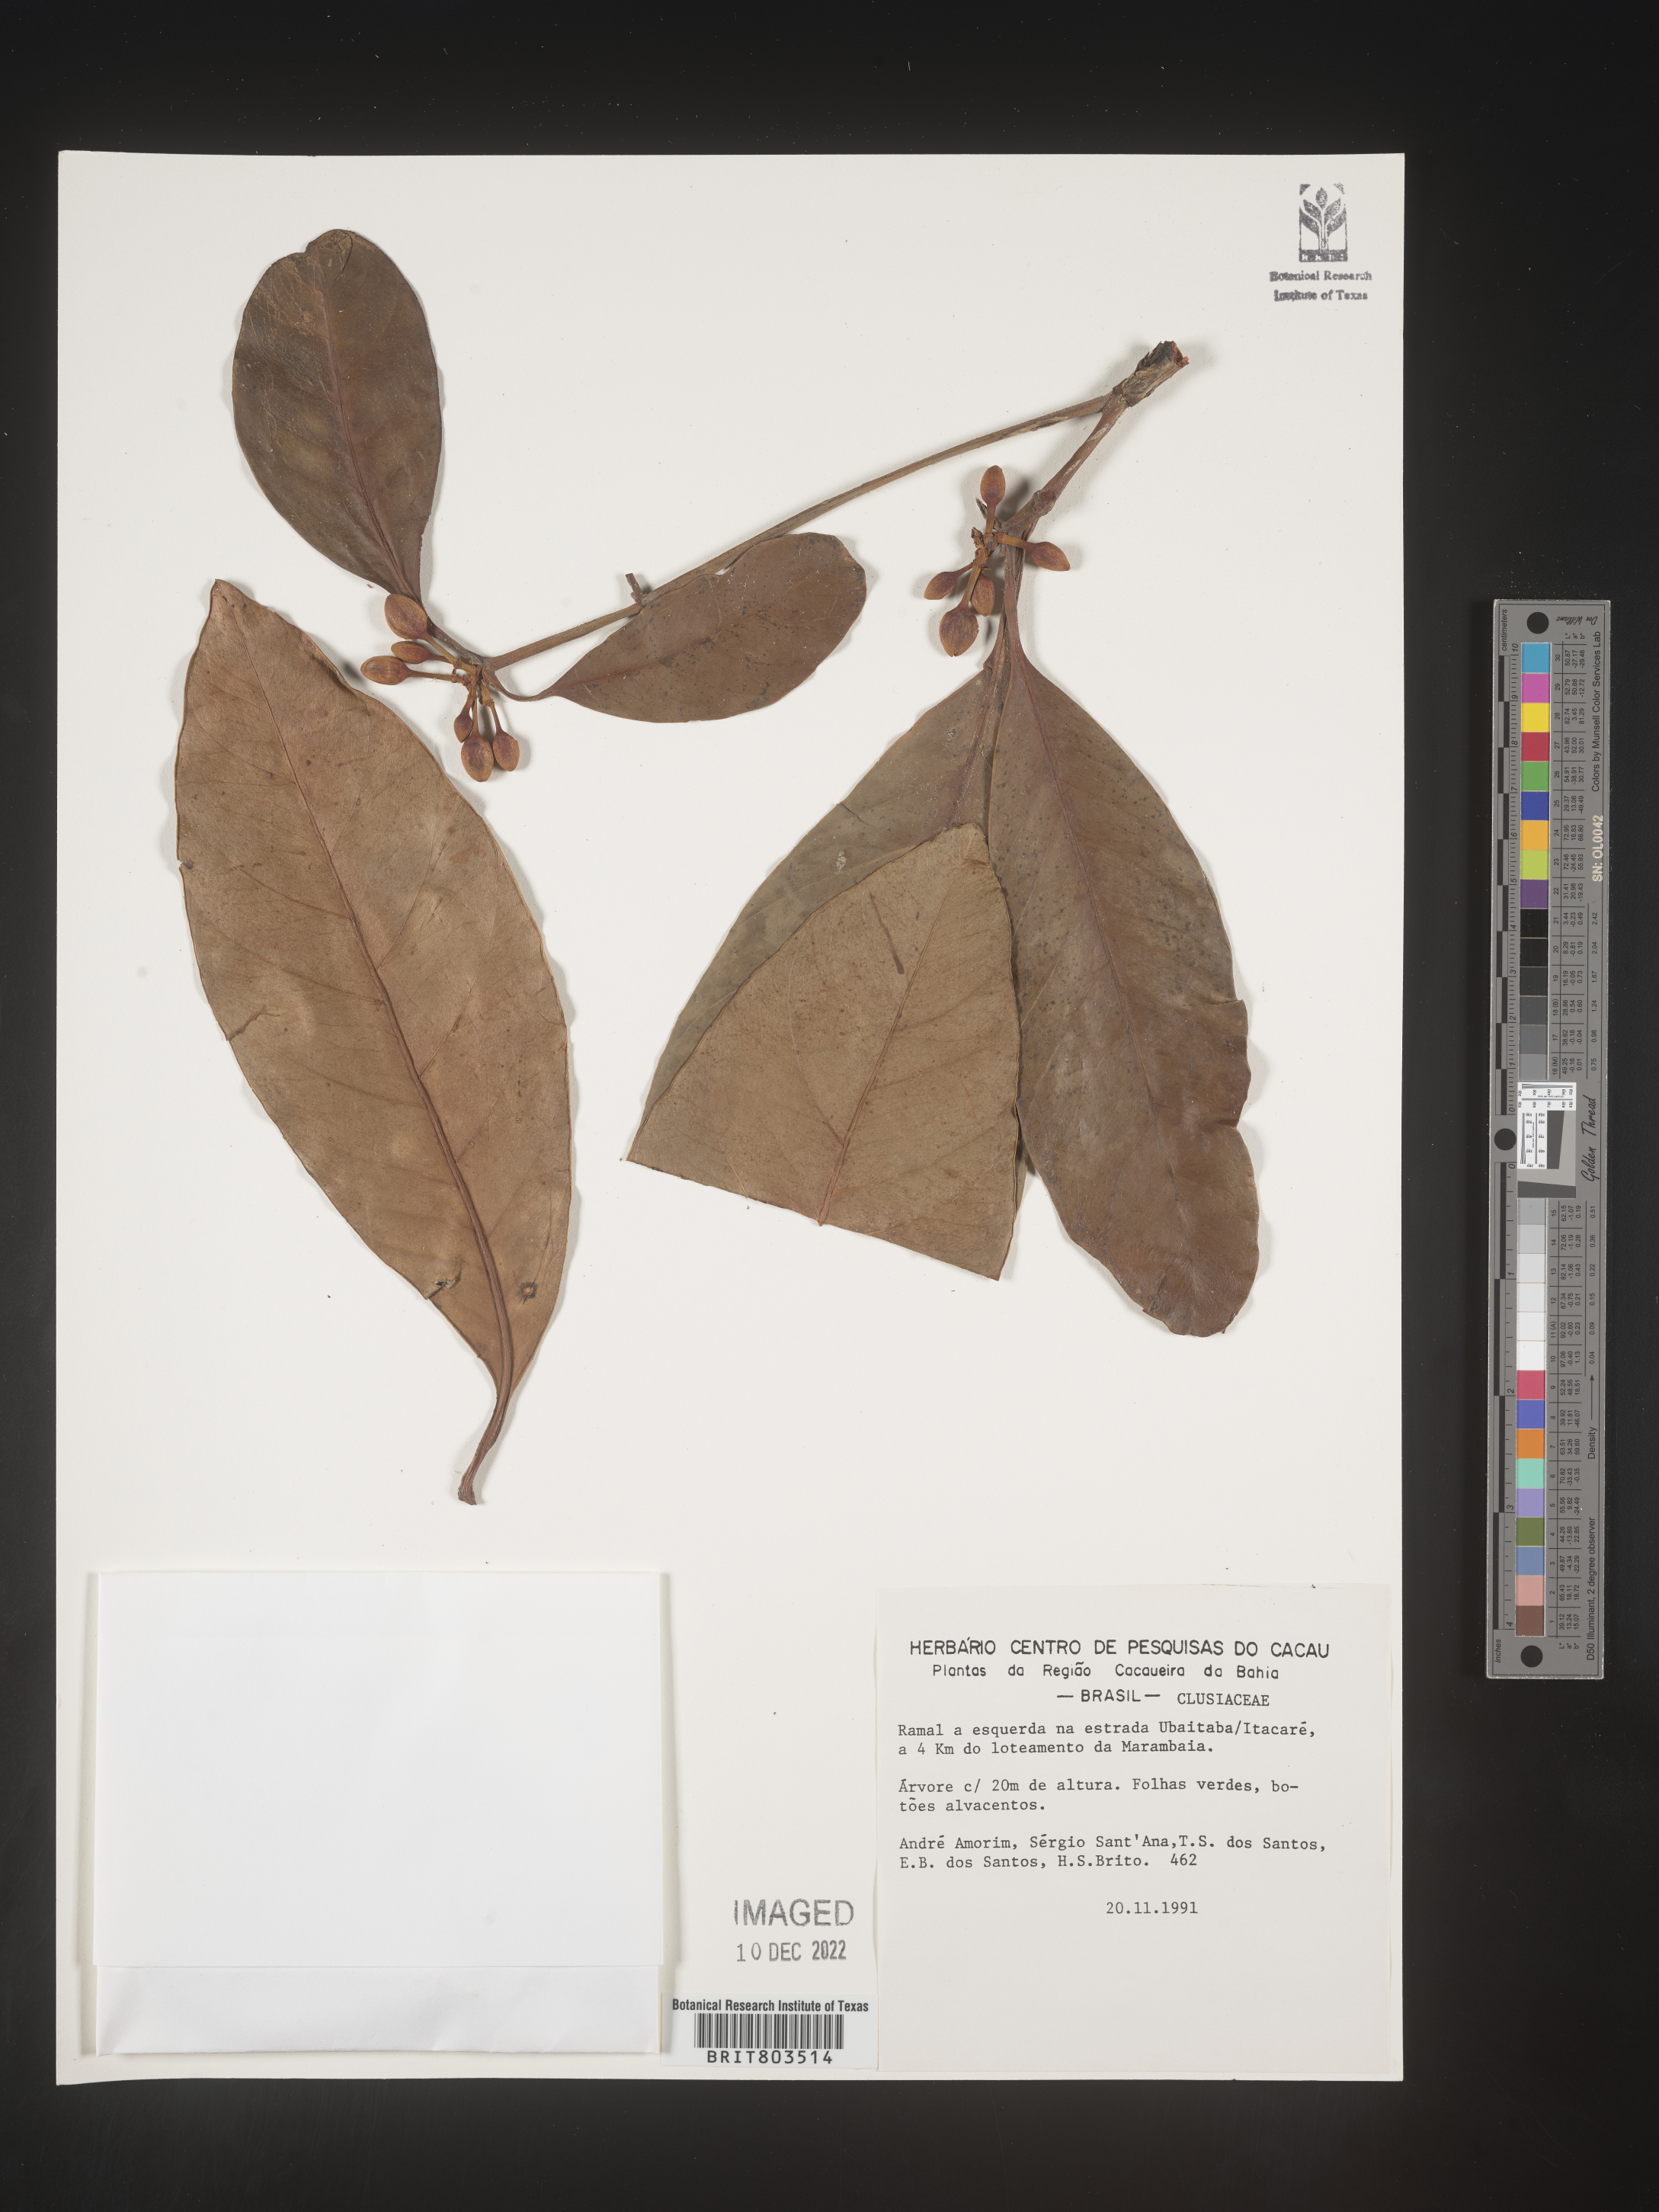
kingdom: Plantae
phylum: Tracheophyta
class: Magnoliopsida
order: Malpighiales
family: Clusiaceae
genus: Tovomita
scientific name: Tovomita
